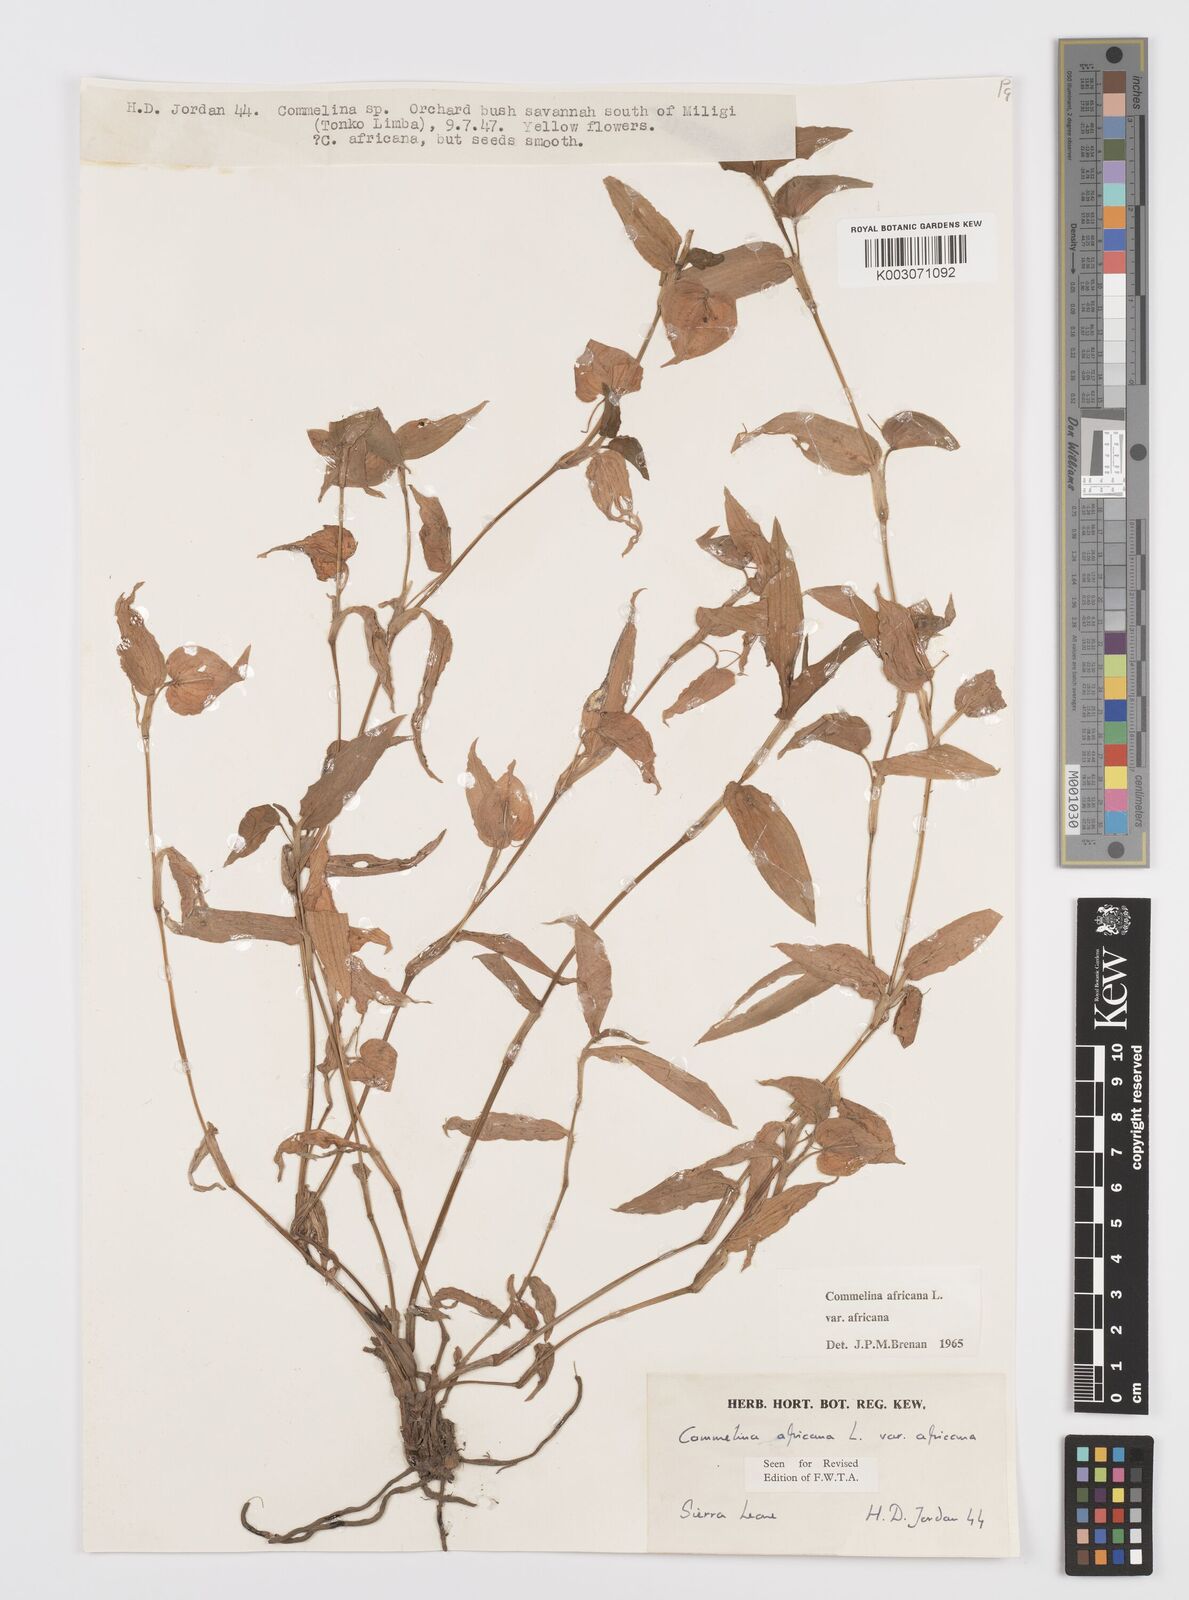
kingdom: Plantae
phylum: Tracheophyta
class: Liliopsida
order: Commelinales
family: Commelinaceae
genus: Commelina
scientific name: Commelina africana
